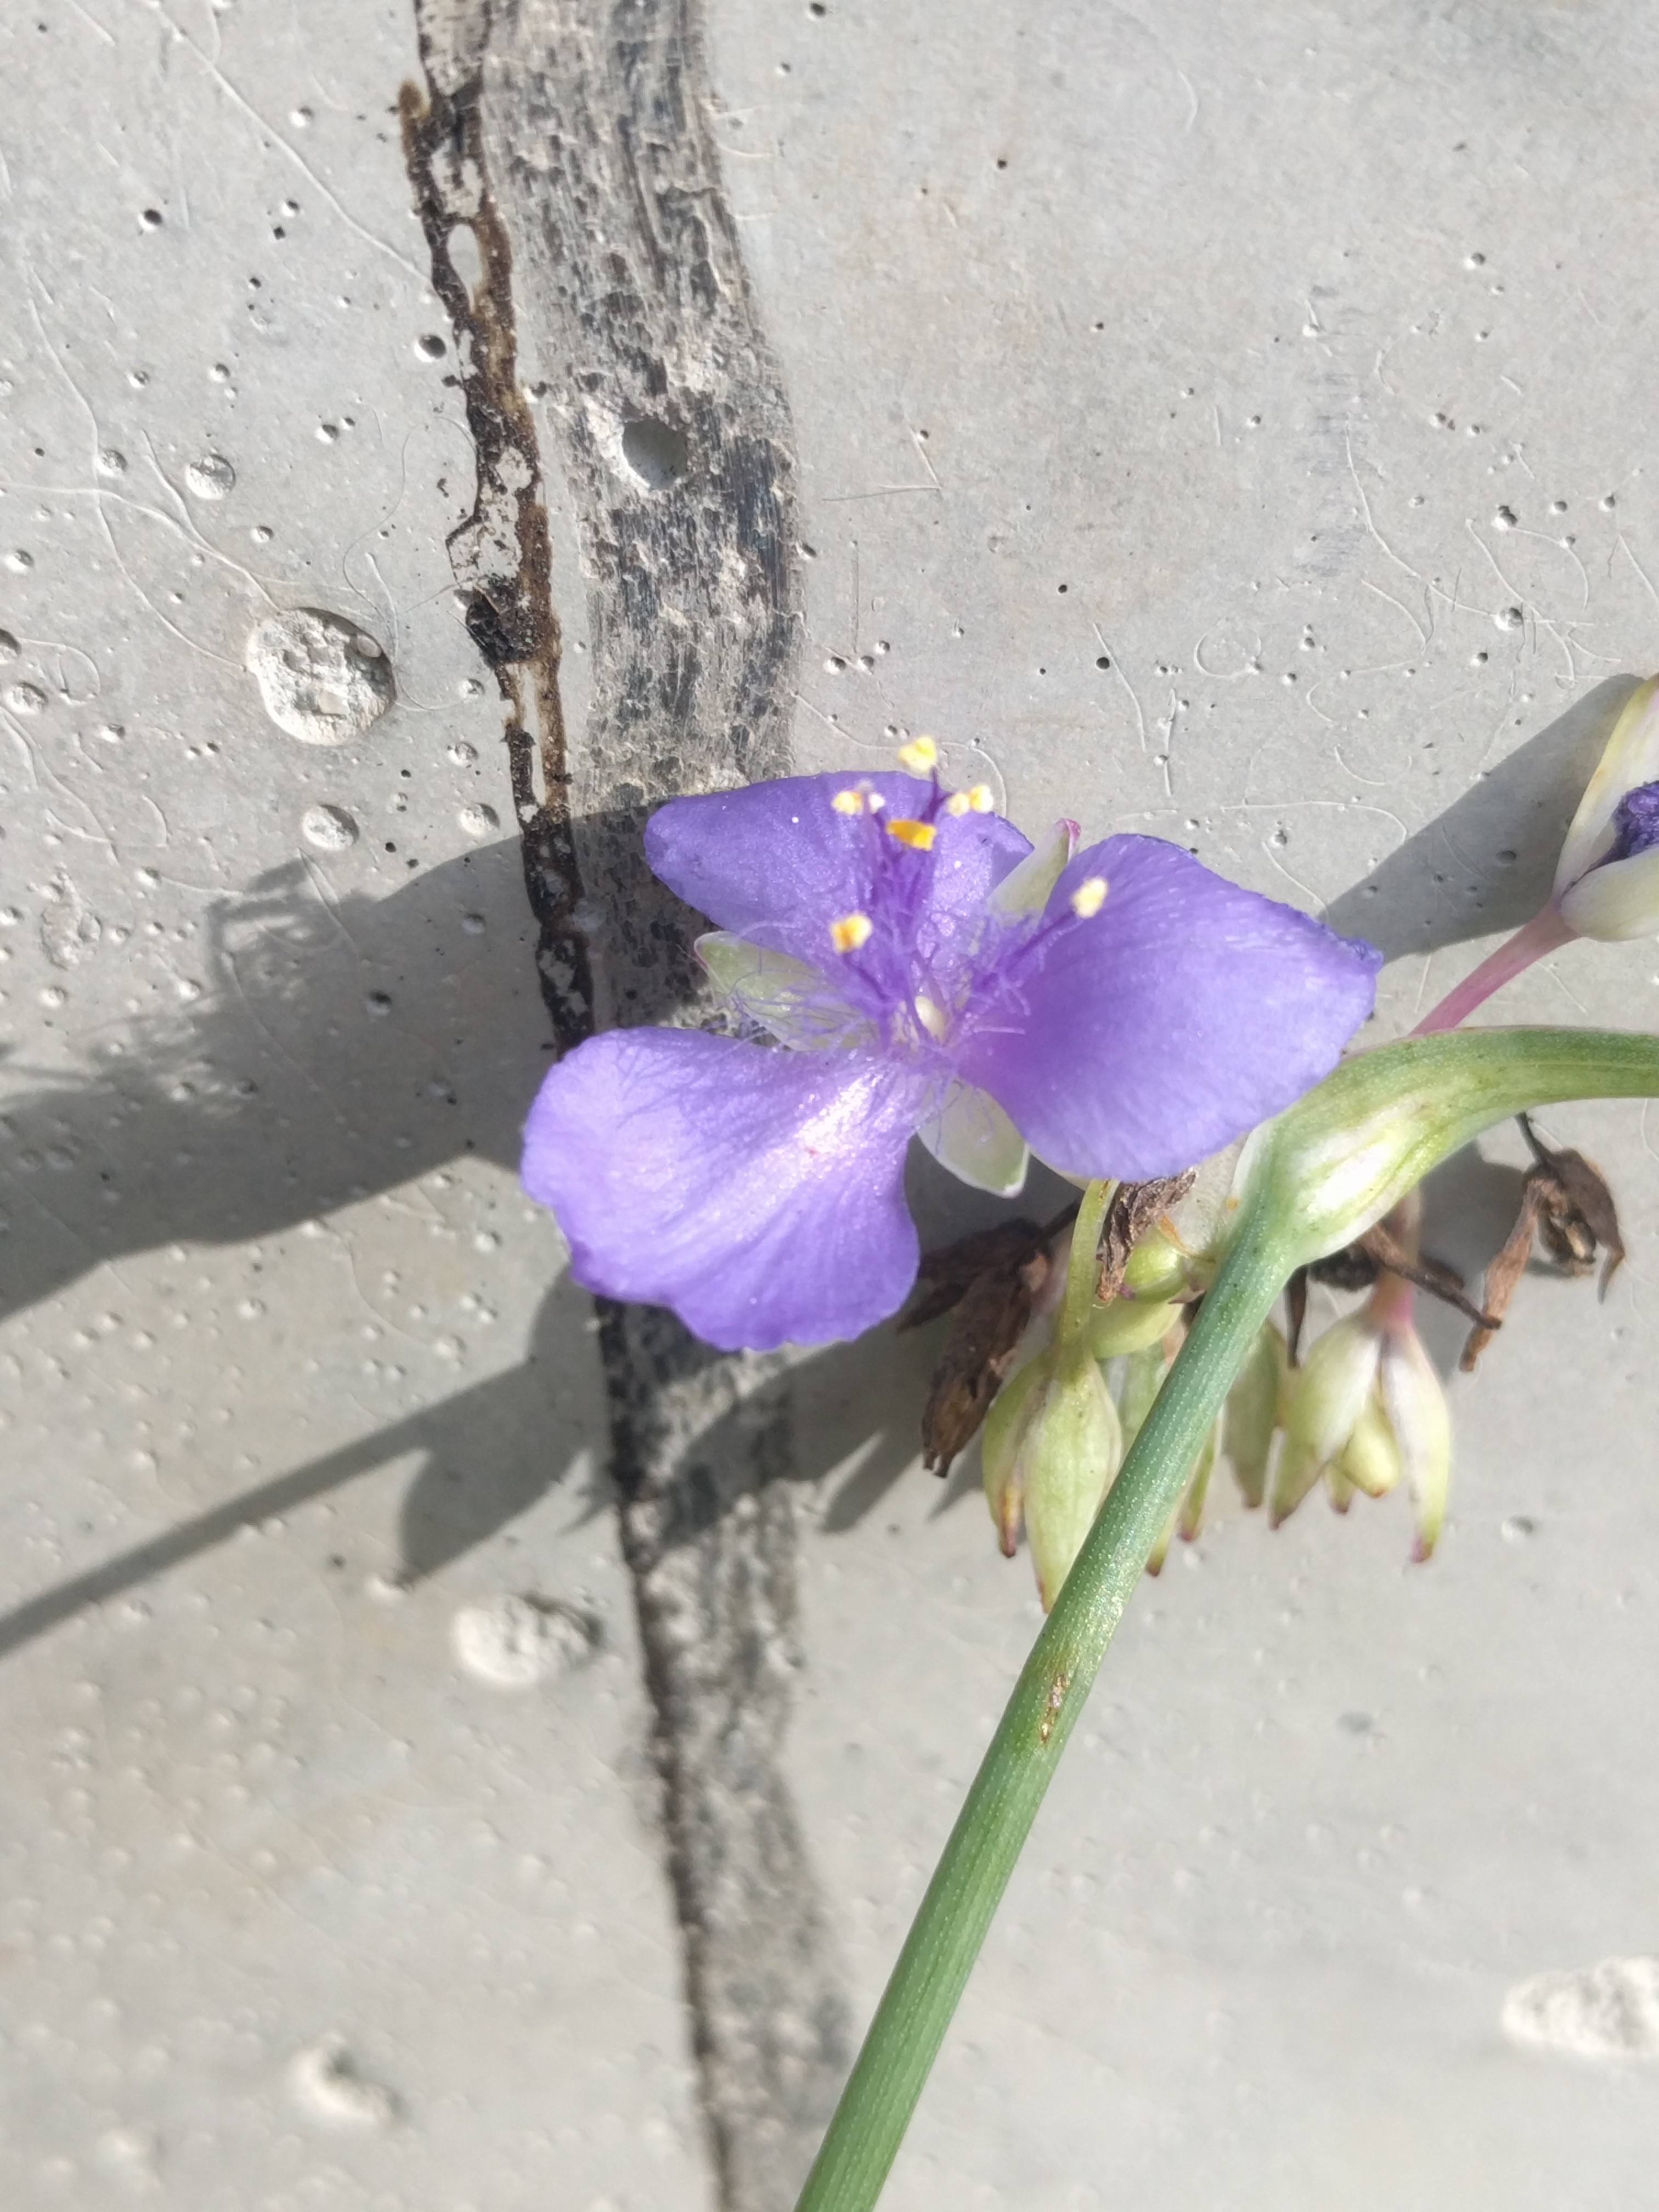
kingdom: Plantae
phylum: Tracheophyta
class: Liliopsida
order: Commelinales
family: Commelinaceae
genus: Tradescantia
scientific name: Tradescantia ohiensis
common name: Spiderwort
